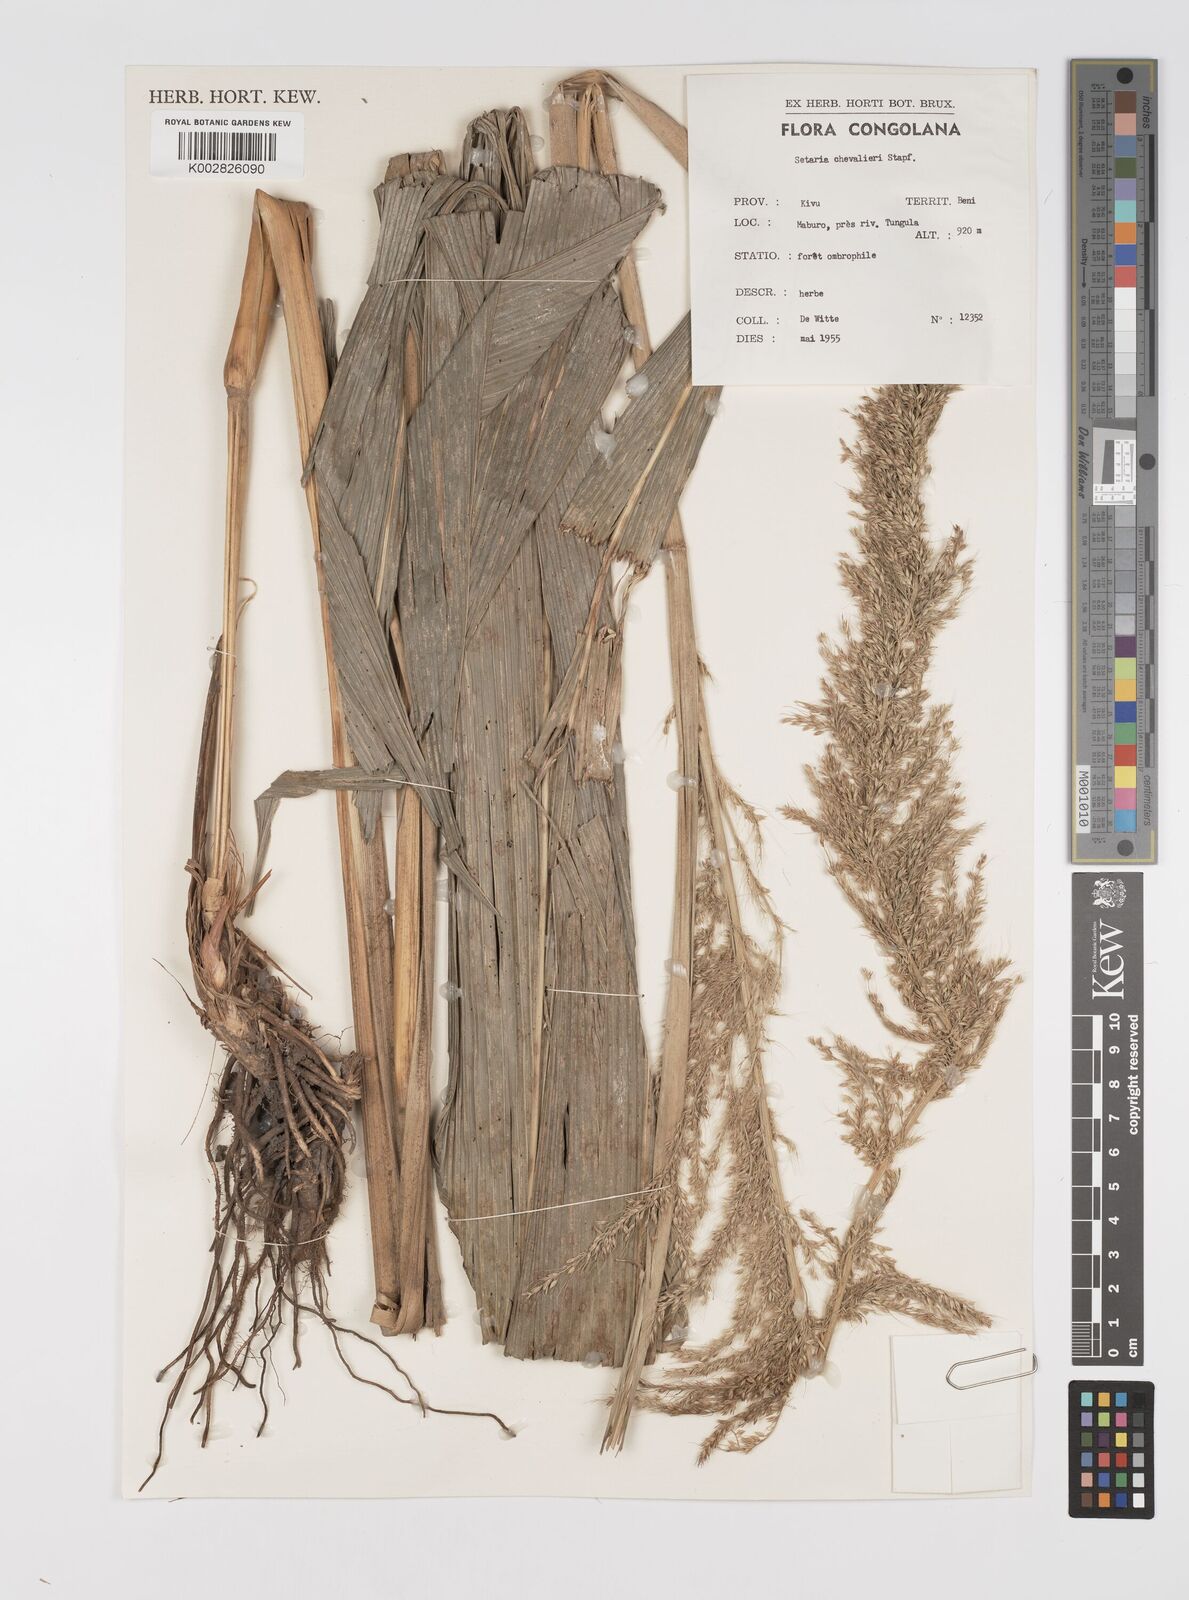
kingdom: Plantae
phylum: Tracheophyta
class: Liliopsida
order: Poales
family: Poaceae
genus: Setaria
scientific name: Setaria poiretiana
